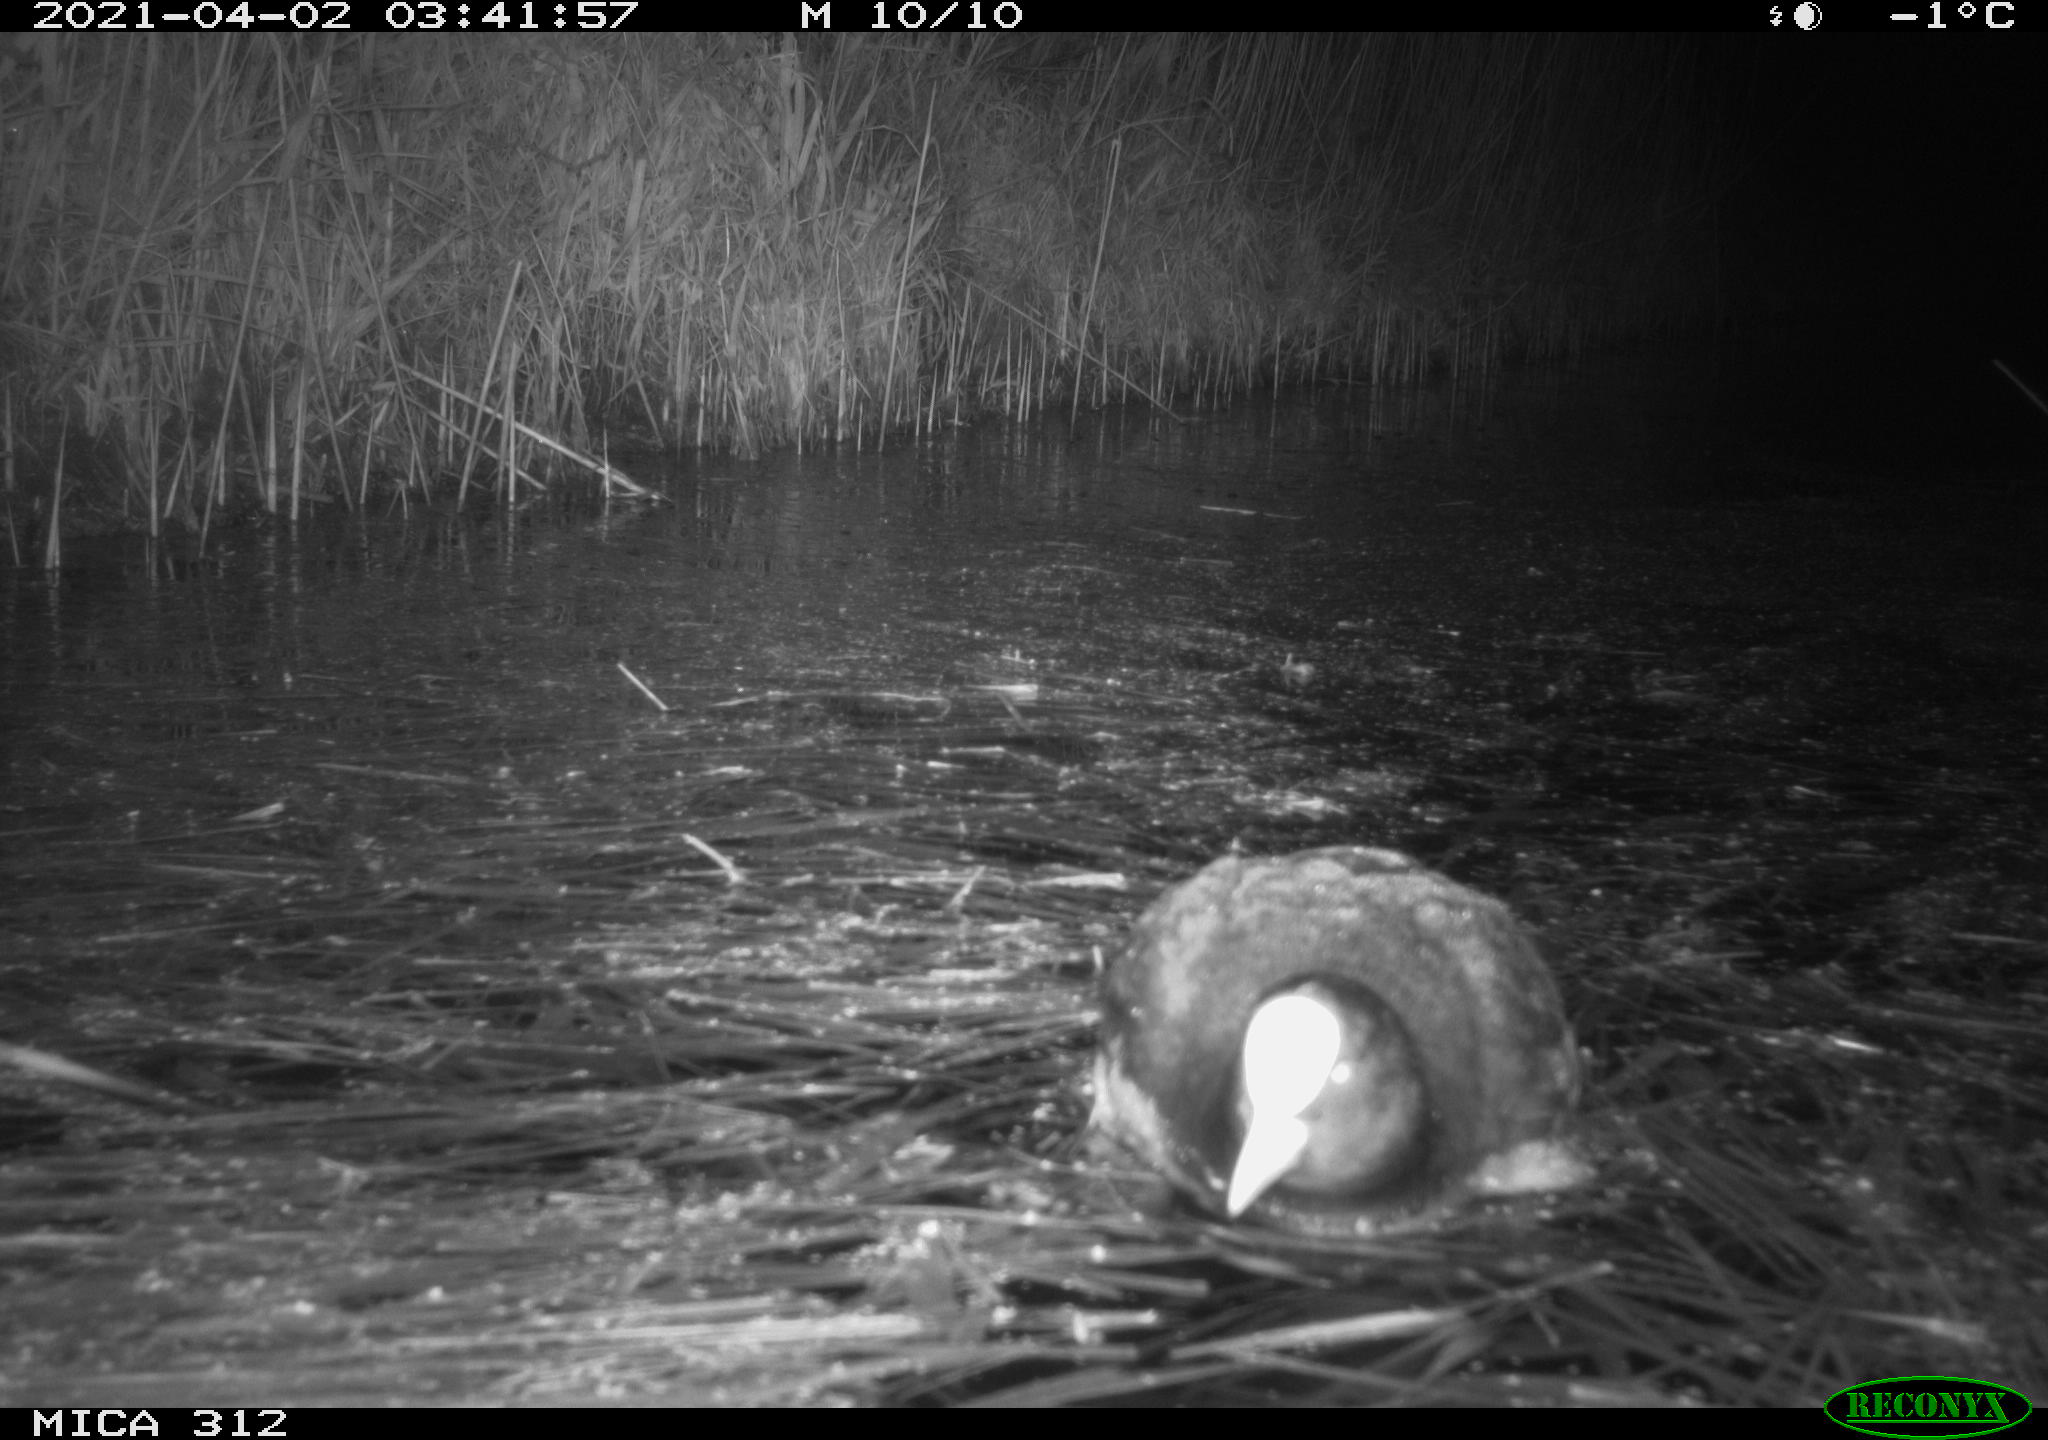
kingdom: Animalia
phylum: Chordata
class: Aves
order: Gruiformes
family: Rallidae
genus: Fulica
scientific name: Fulica atra
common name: Eurasian coot
